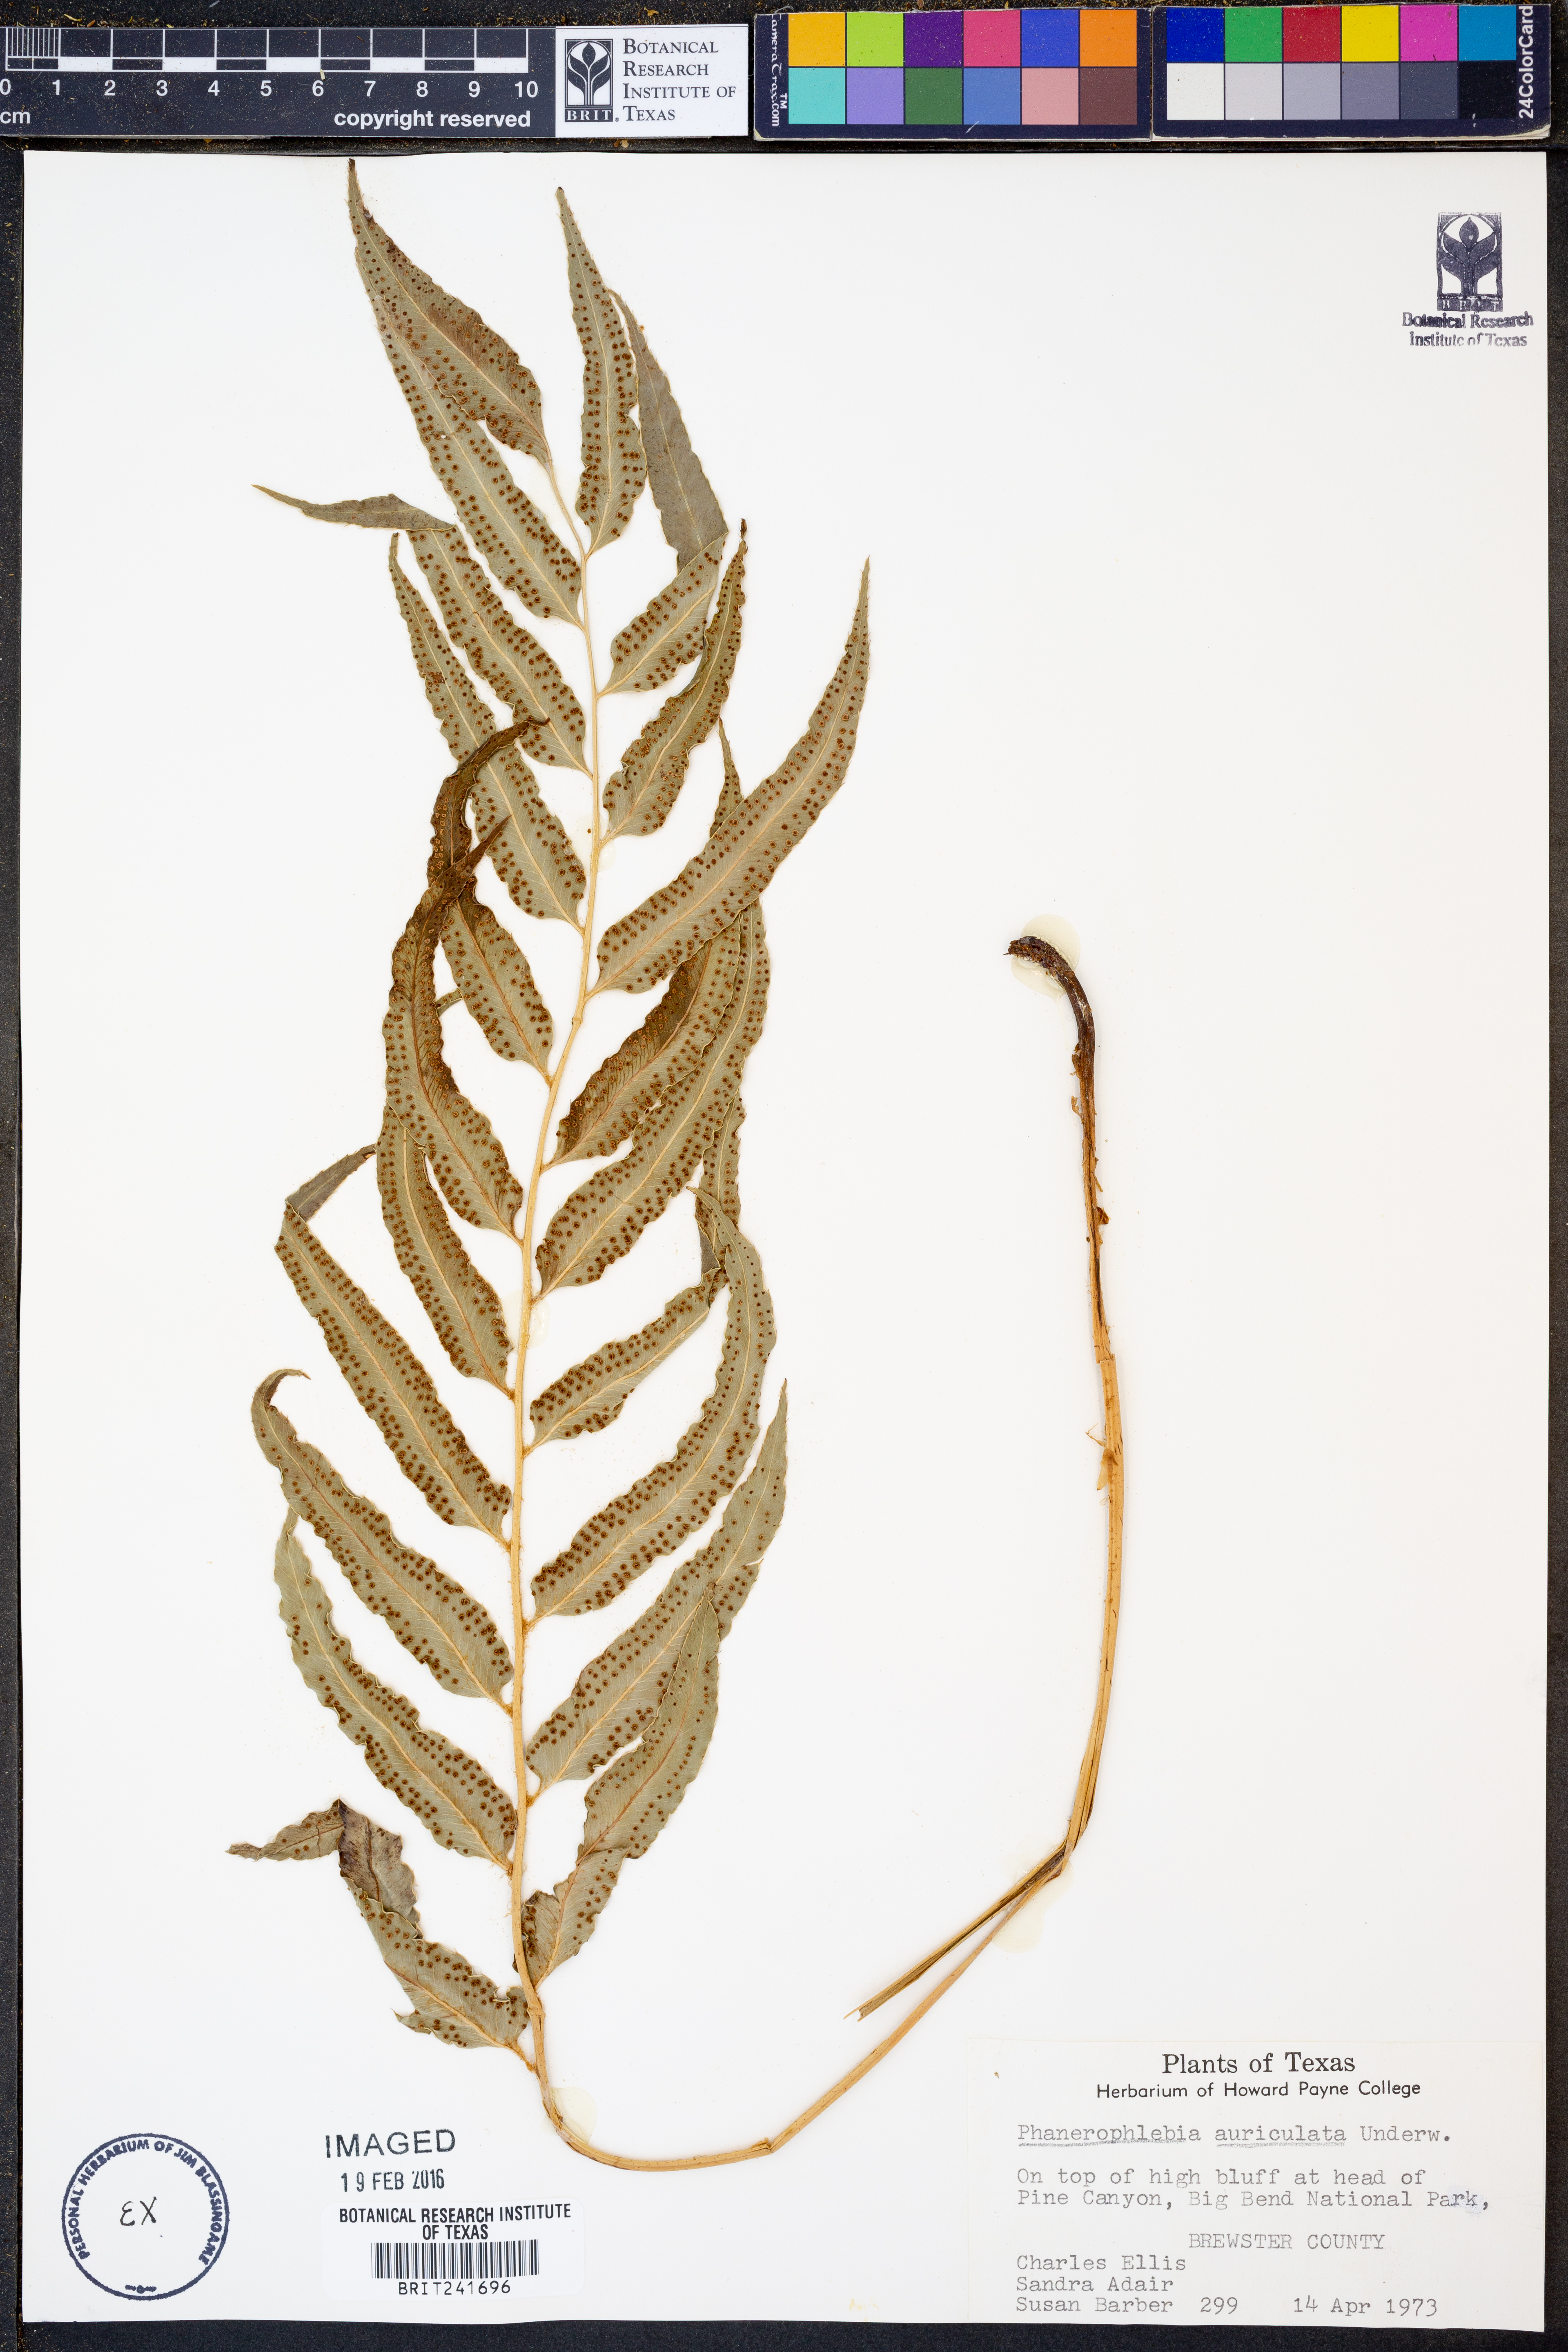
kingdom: Plantae
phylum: Tracheophyta
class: Polypodiopsida
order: Polypodiales
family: Dryopteridaceae
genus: Phanerophlebia
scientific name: Phanerophlebia auriculata
